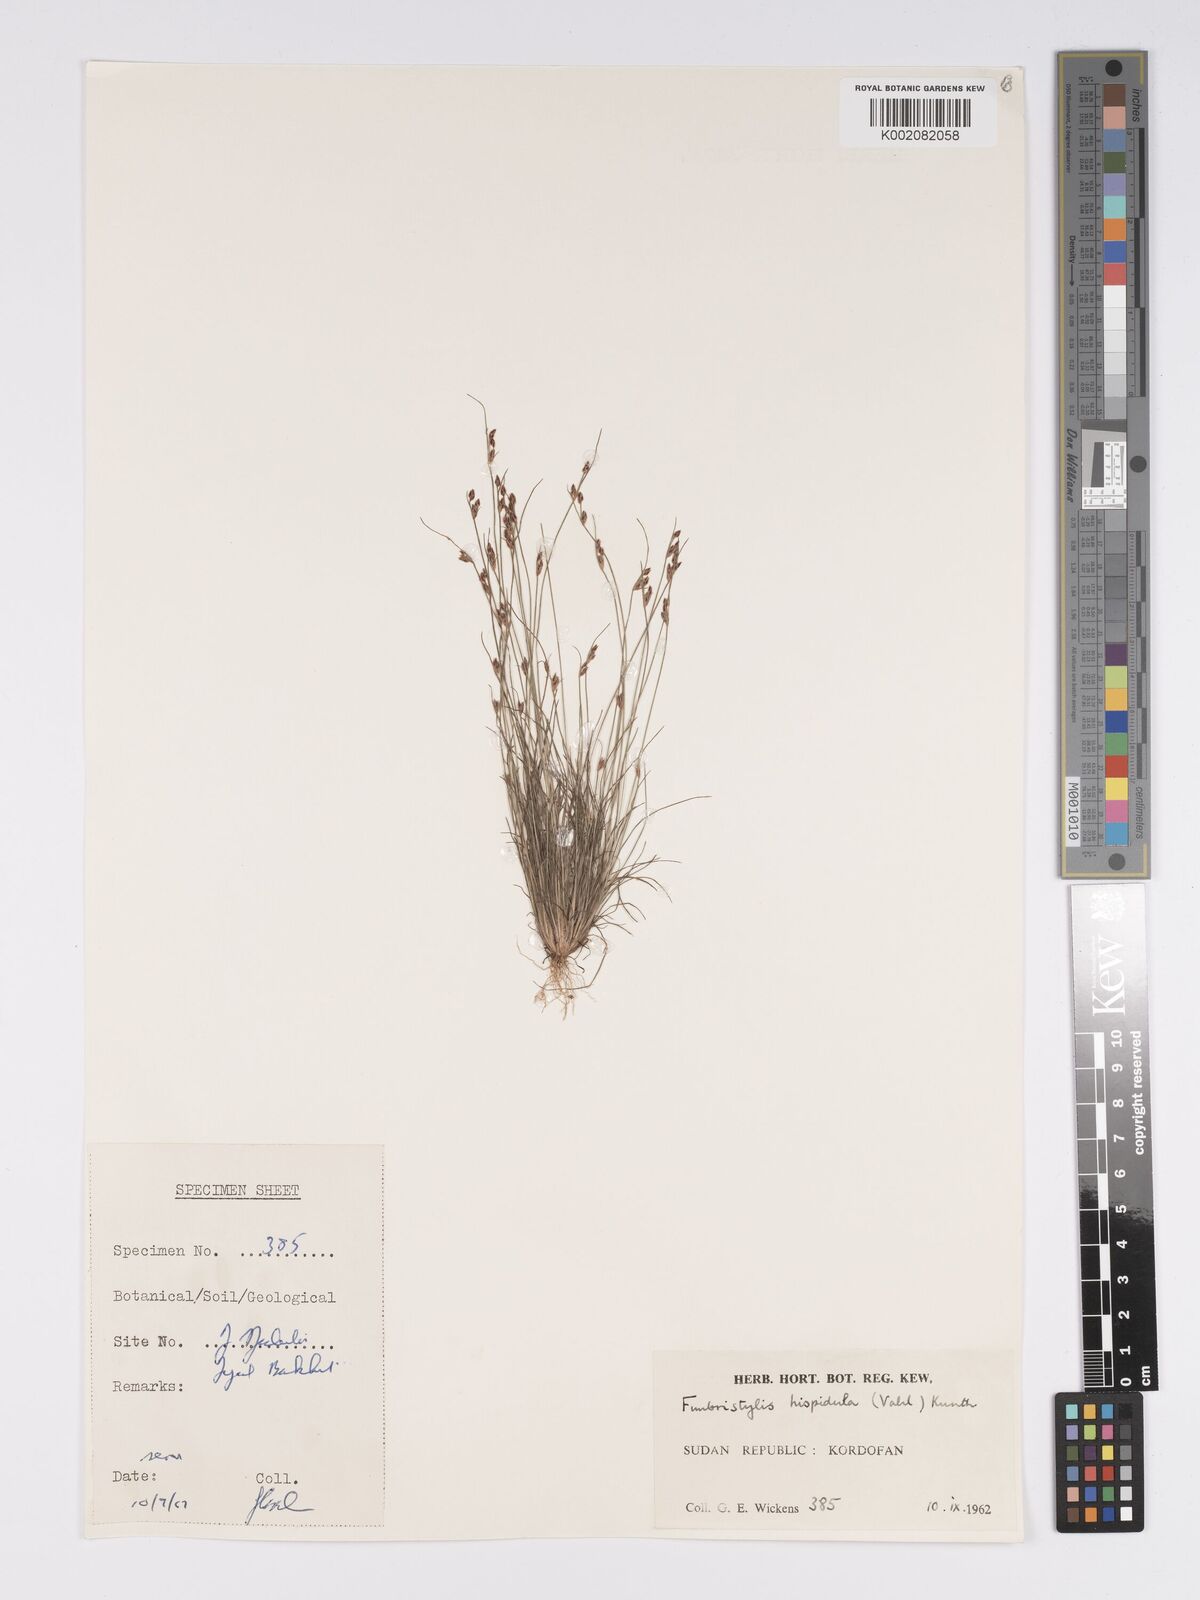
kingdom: Plantae
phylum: Tracheophyta
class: Liliopsida
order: Poales
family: Cyperaceae
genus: Bulbostylis
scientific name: Bulbostylis hispidula
